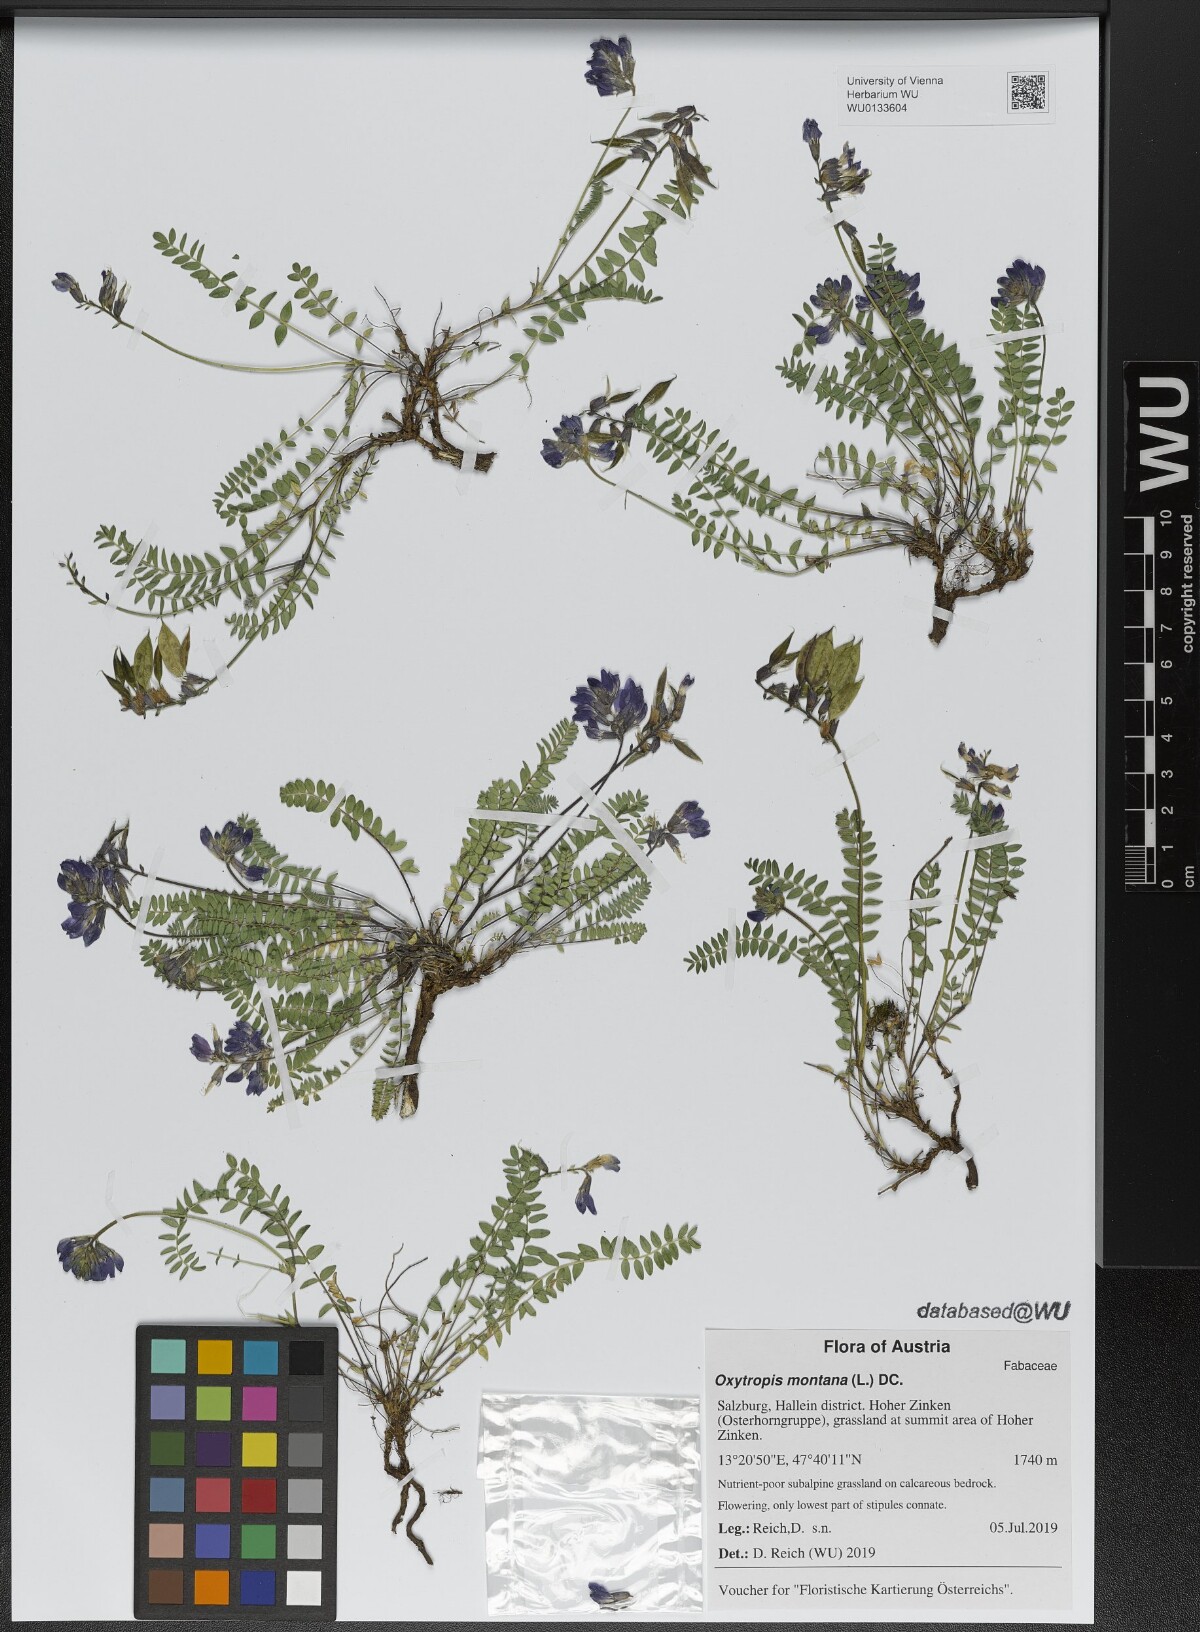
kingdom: Plantae
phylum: Tracheophyta
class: Magnoliopsida
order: Fabales
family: Fabaceae
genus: Oxytropis
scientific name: Oxytropis montana
